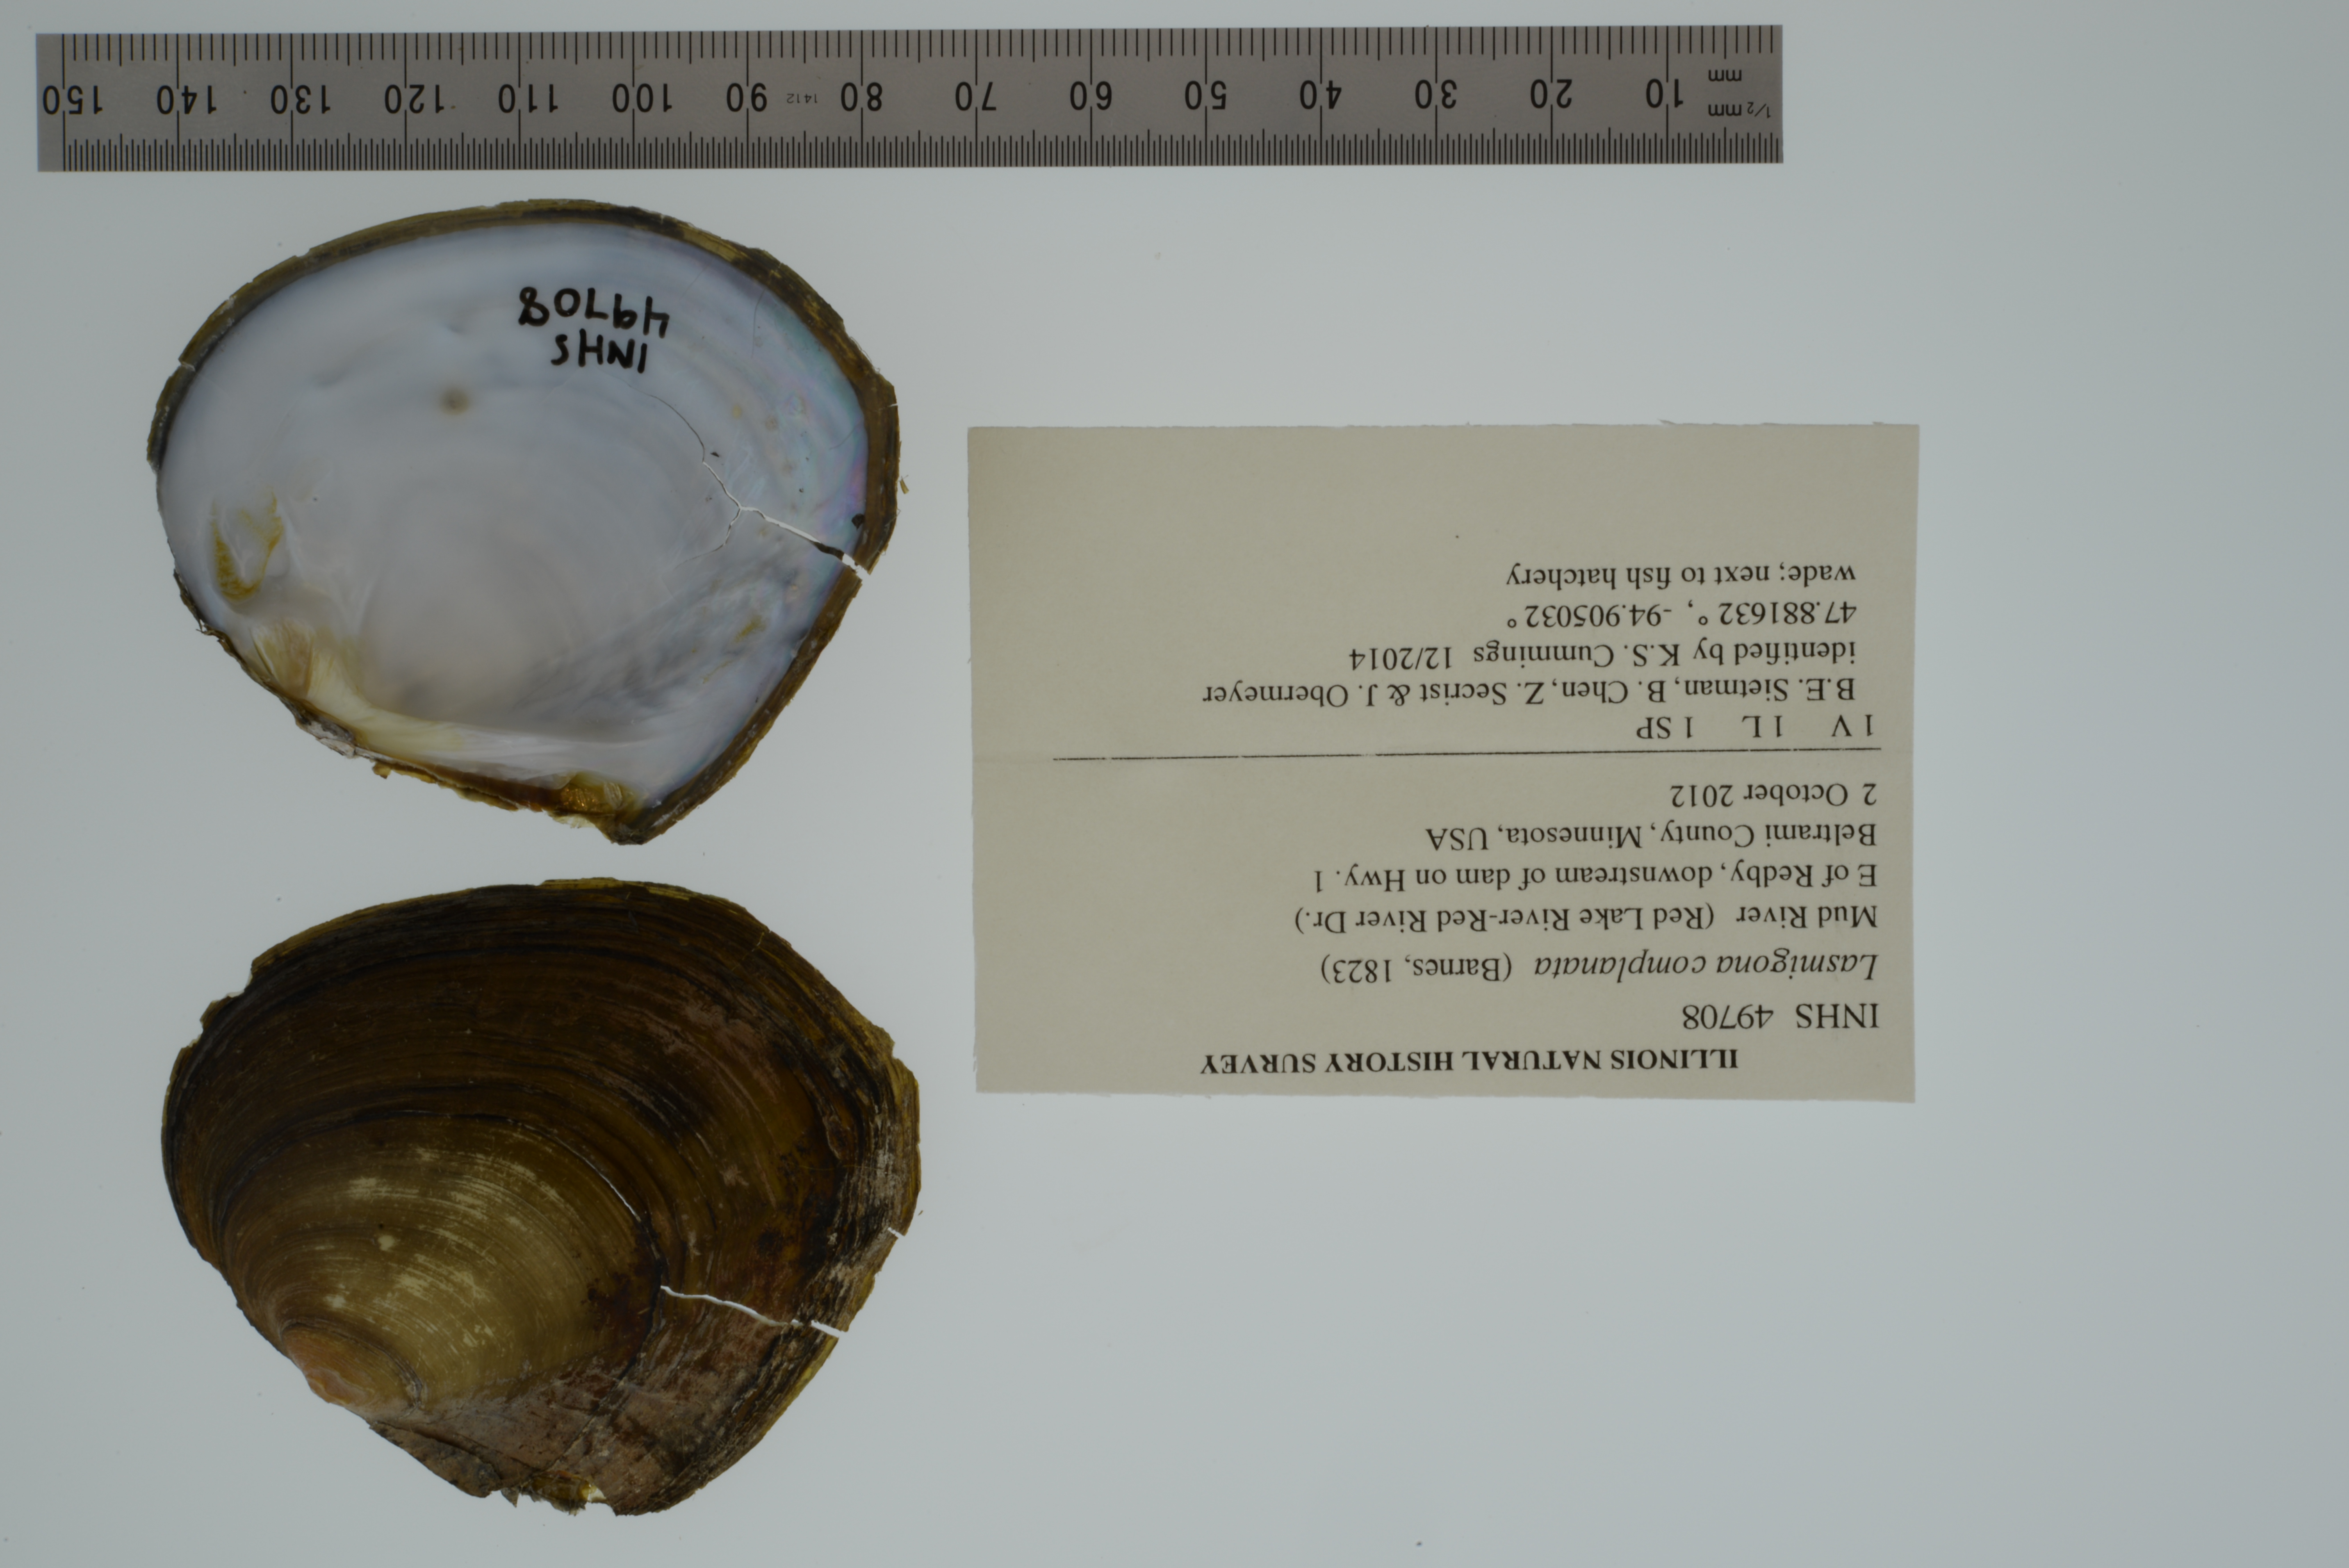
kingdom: Animalia
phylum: Mollusca
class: Bivalvia
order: Unionida
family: Unionidae
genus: Lasmigona
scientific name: Lasmigona complanata
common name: White heelsplitter
